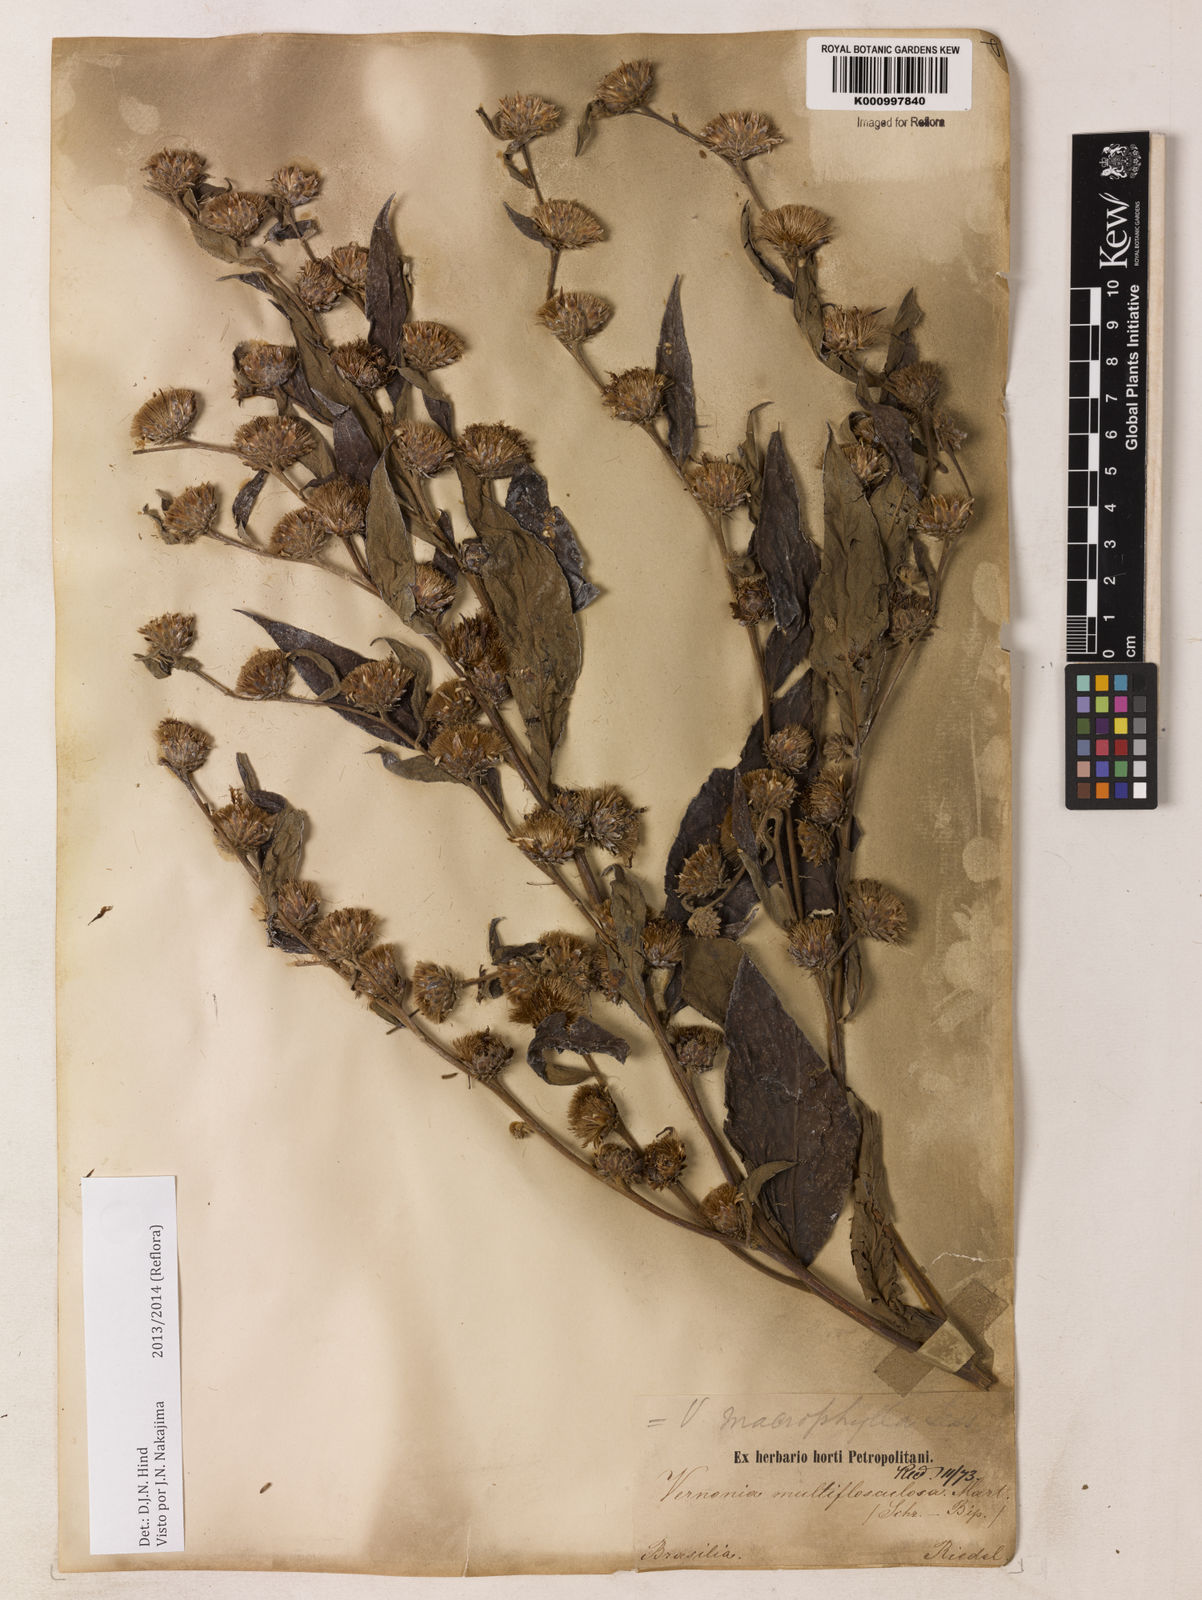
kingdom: Plantae
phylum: Tracheophyta
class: Magnoliopsida
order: Asterales
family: Asteraceae
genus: Lessingianthus
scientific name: Lessingianthus macrophyllus
